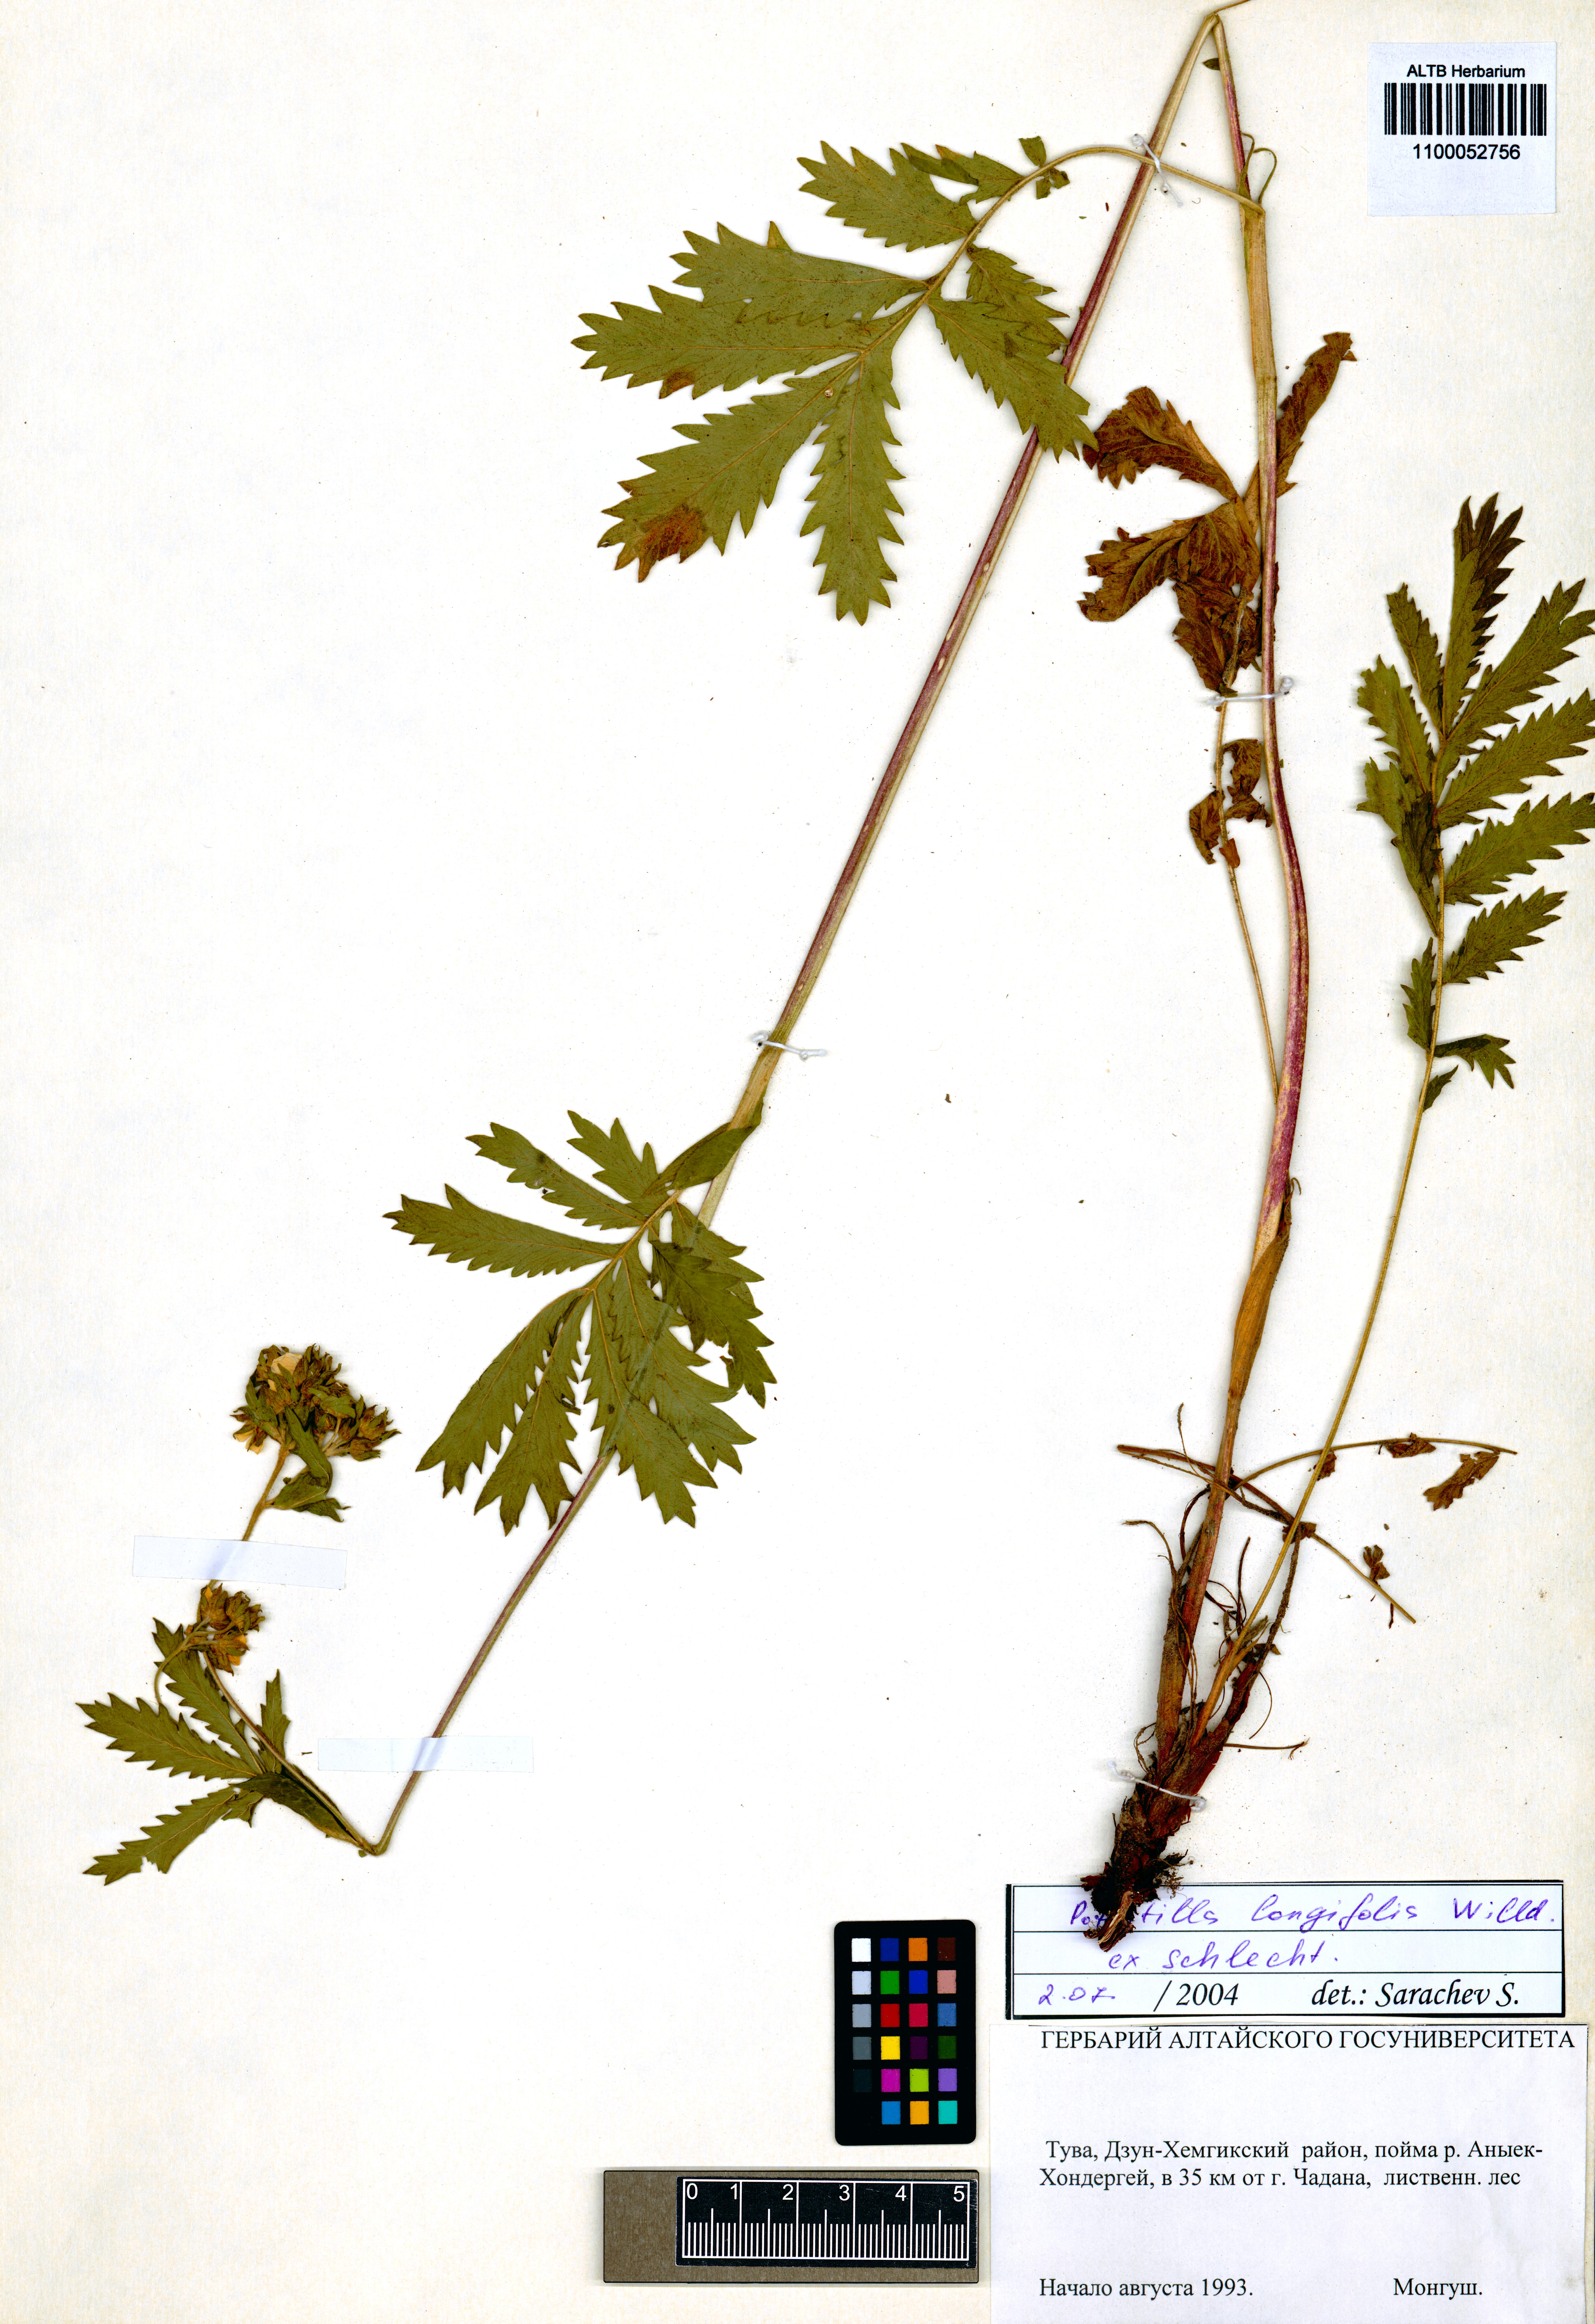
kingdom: Plantae
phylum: Tracheophyta
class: Magnoliopsida
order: Rosales
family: Rosaceae
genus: Potentilla
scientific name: Potentilla longifolia
